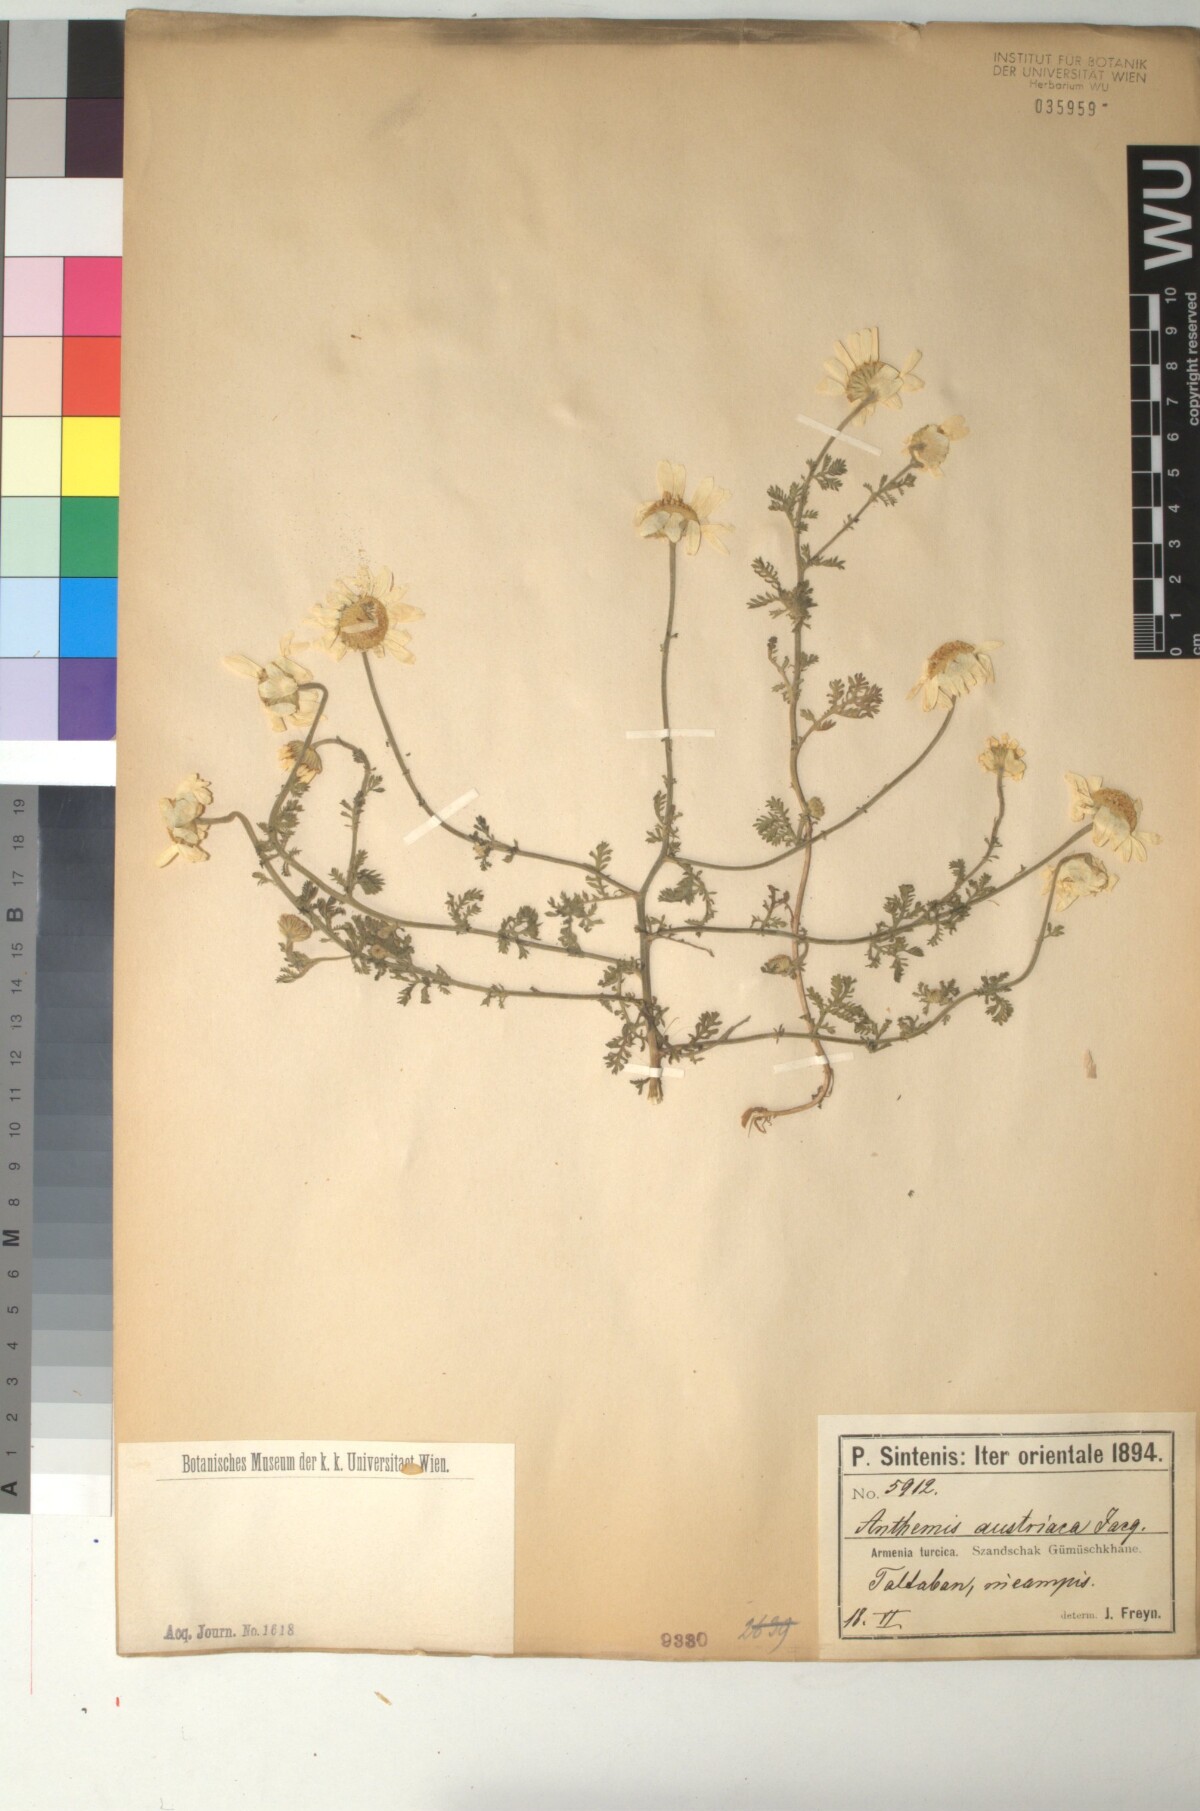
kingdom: Plantae
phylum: Tracheophyta
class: Magnoliopsida
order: Asterales
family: Asteraceae
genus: Cota
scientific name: Cota austriaca
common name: Austrian chamomile
